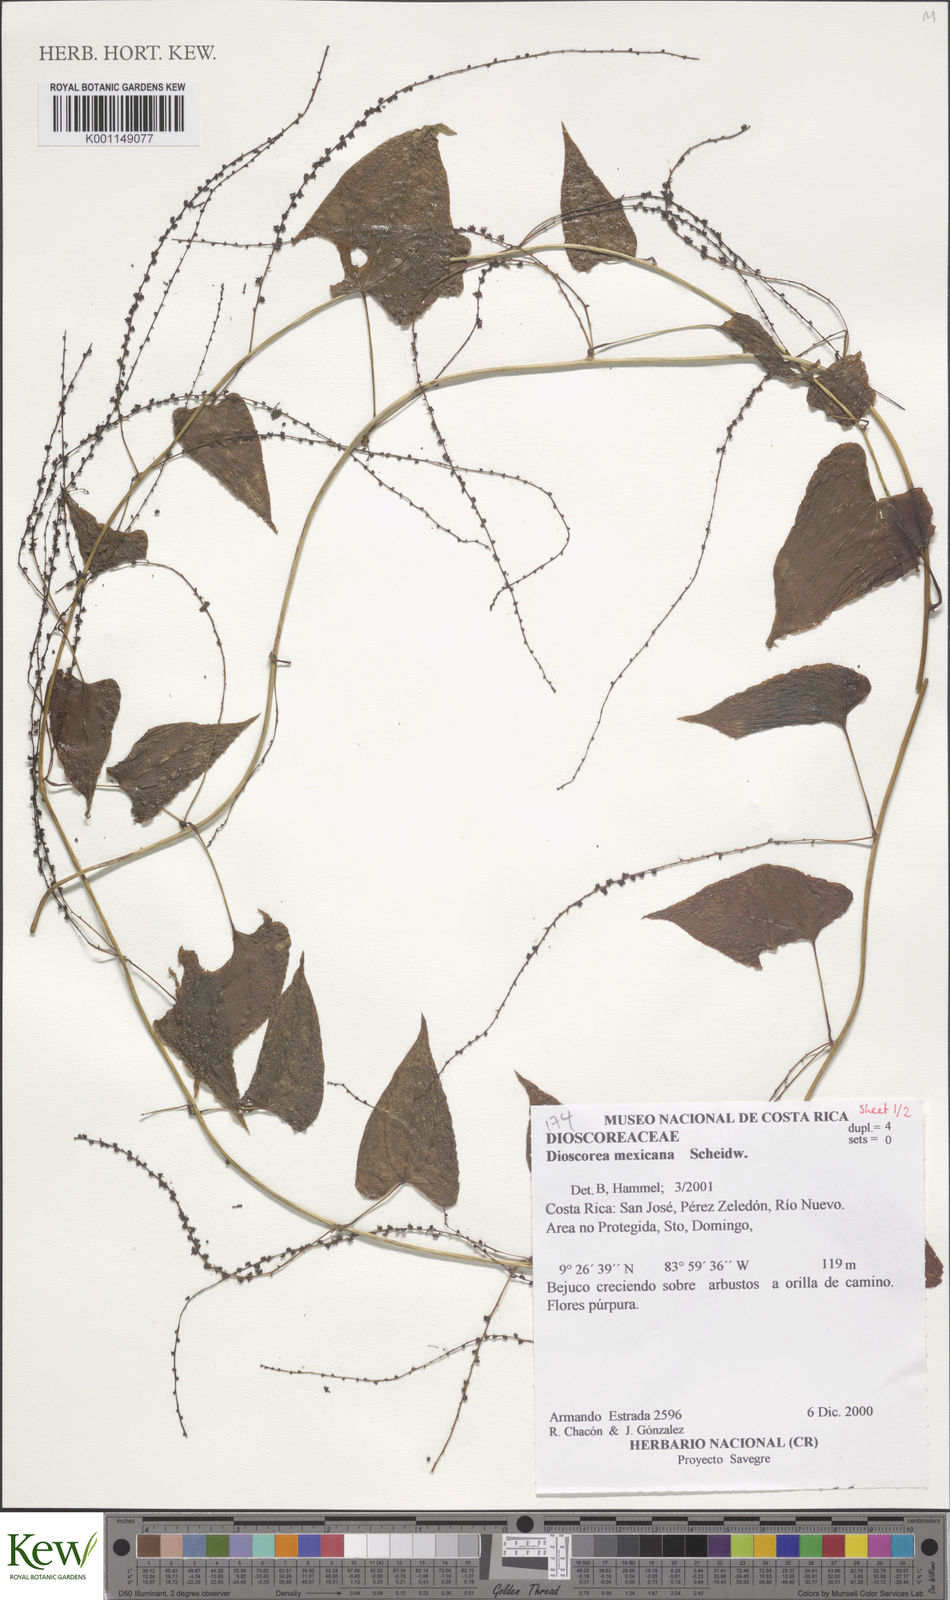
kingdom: Plantae
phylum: Tracheophyta
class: Liliopsida
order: Dioscoreales
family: Dioscoreaceae
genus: Dioscorea
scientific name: Dioscorea mexicana
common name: Mexican yam
